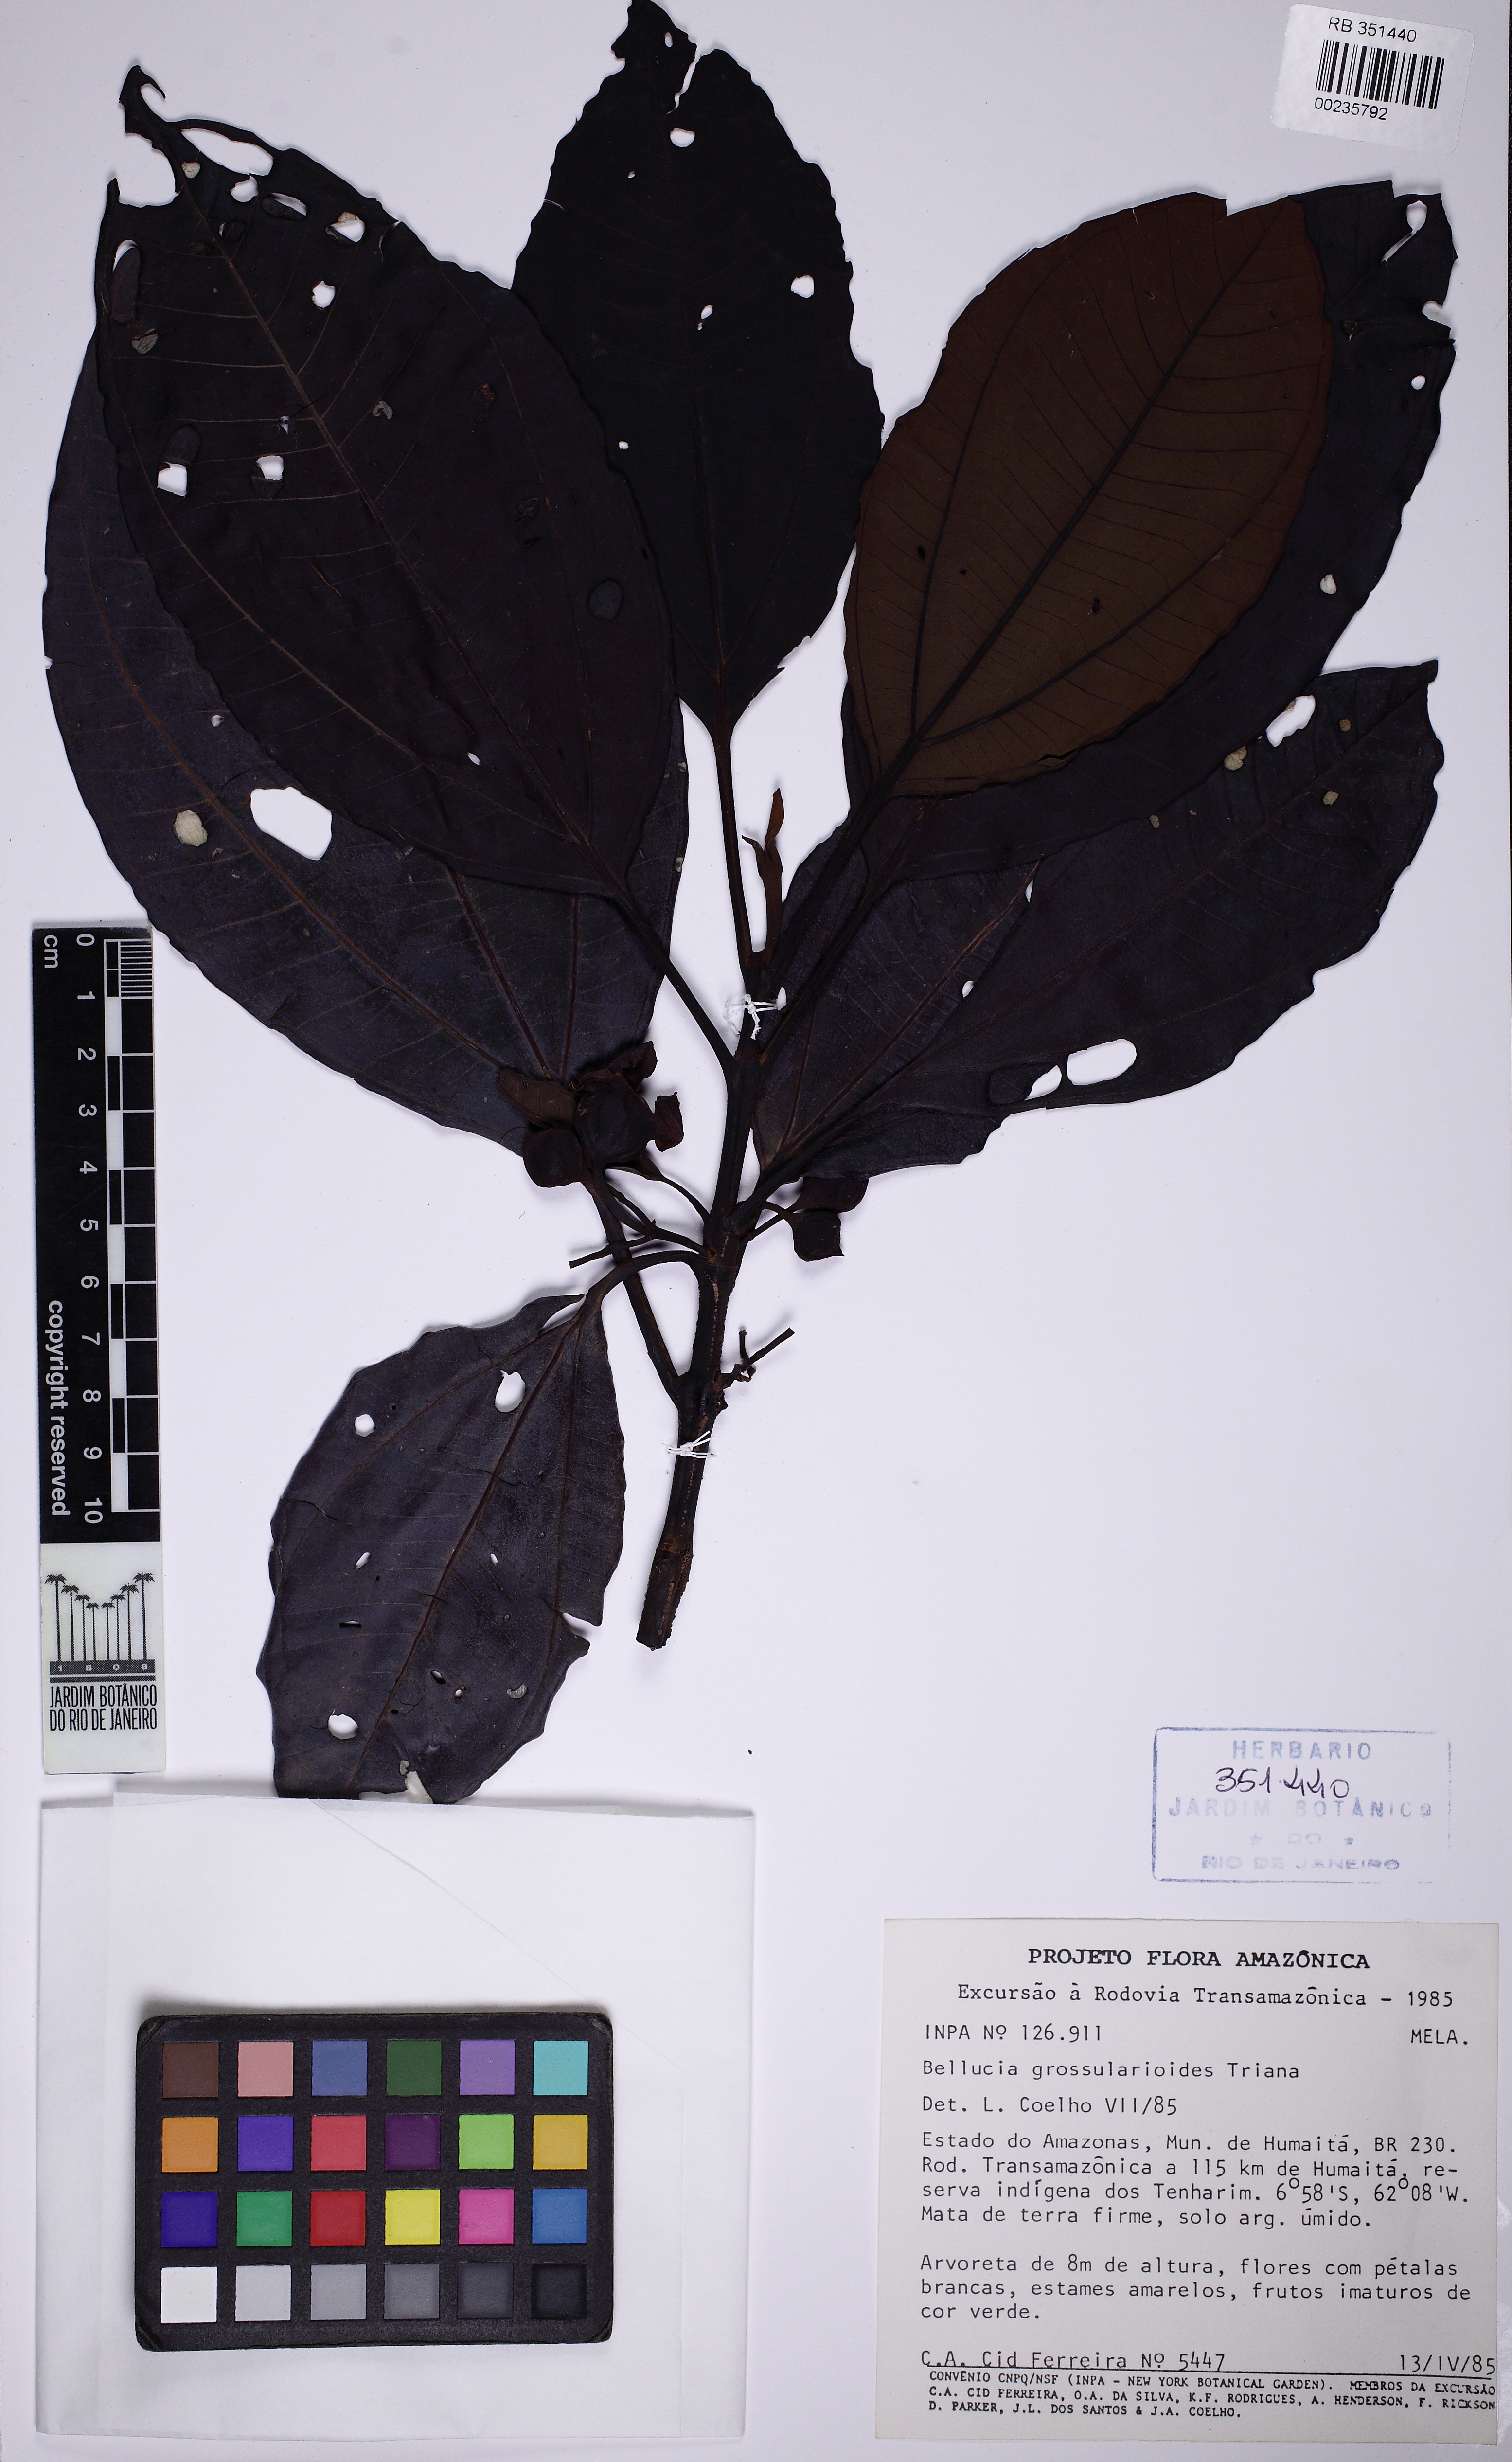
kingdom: Plantae
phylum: Tracheophyta
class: Magnoliopsida
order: Myrtales
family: Melastomataceae
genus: Bellucia
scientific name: Bellucia grossularioides
